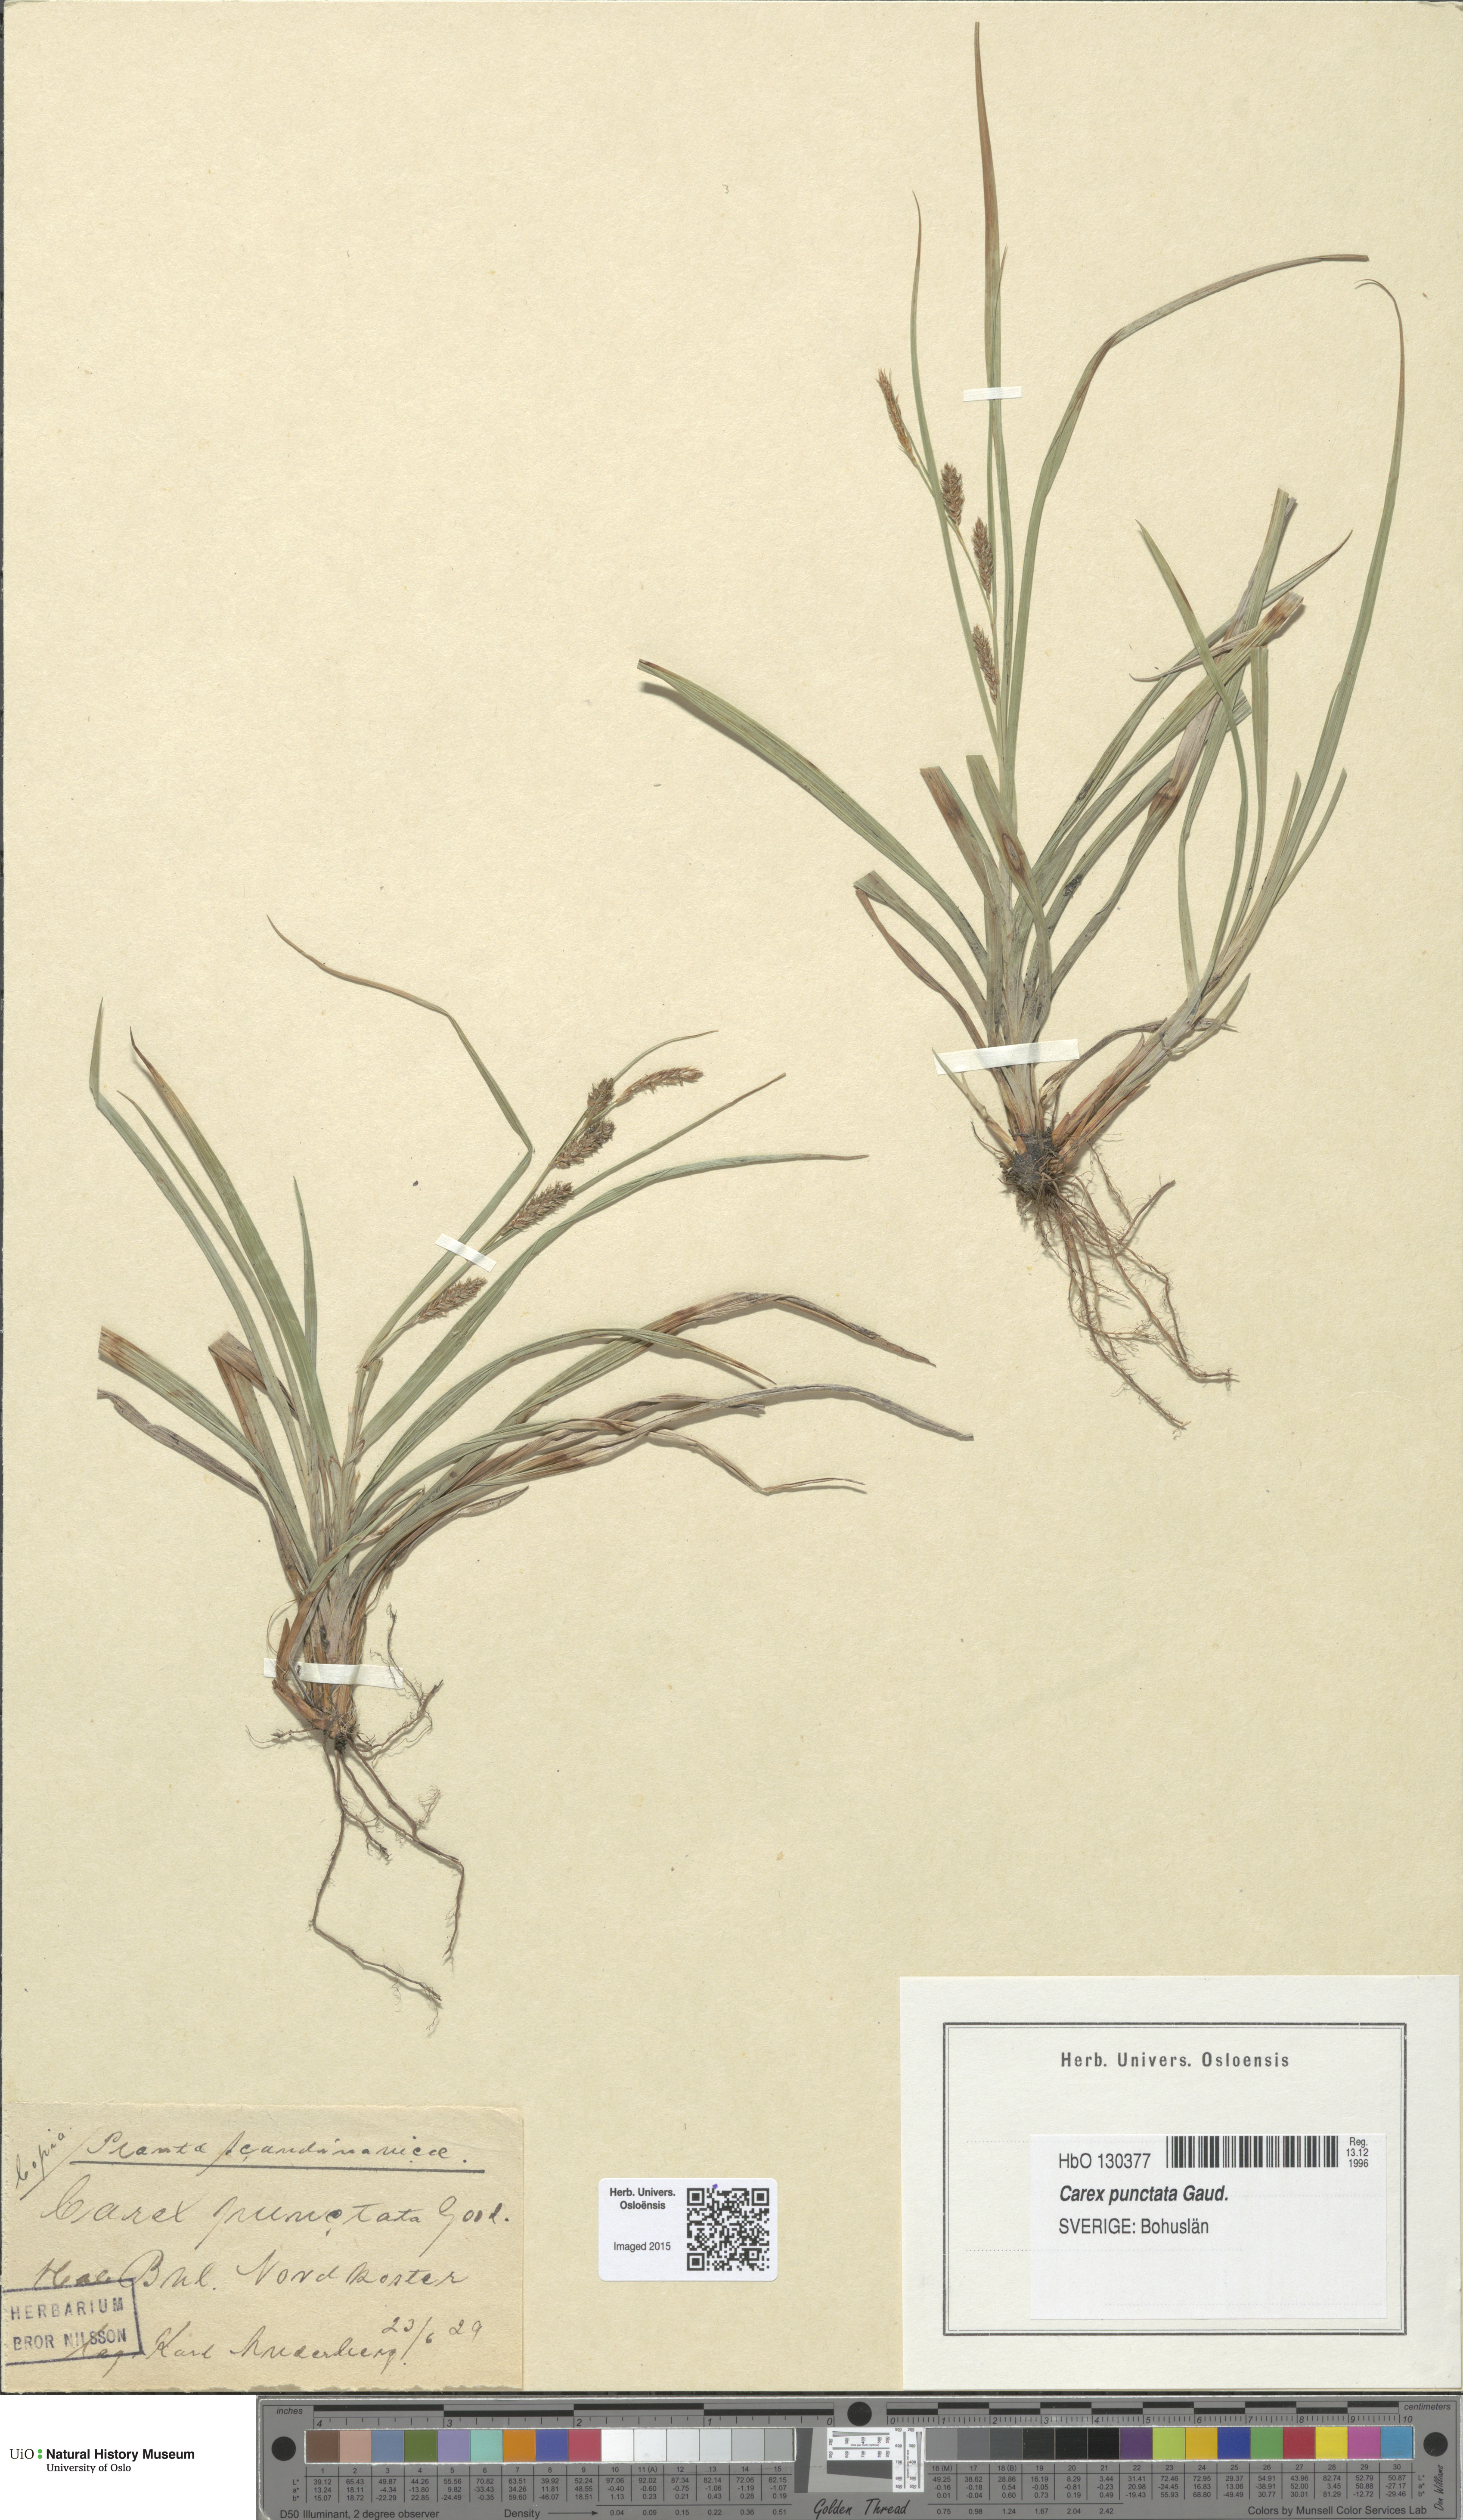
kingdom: Plantae
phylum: Tracheophyta
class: Liliopsida
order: Poales
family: Cyperaceae
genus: Carex
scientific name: Carex punctata
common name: Dotted sedge
